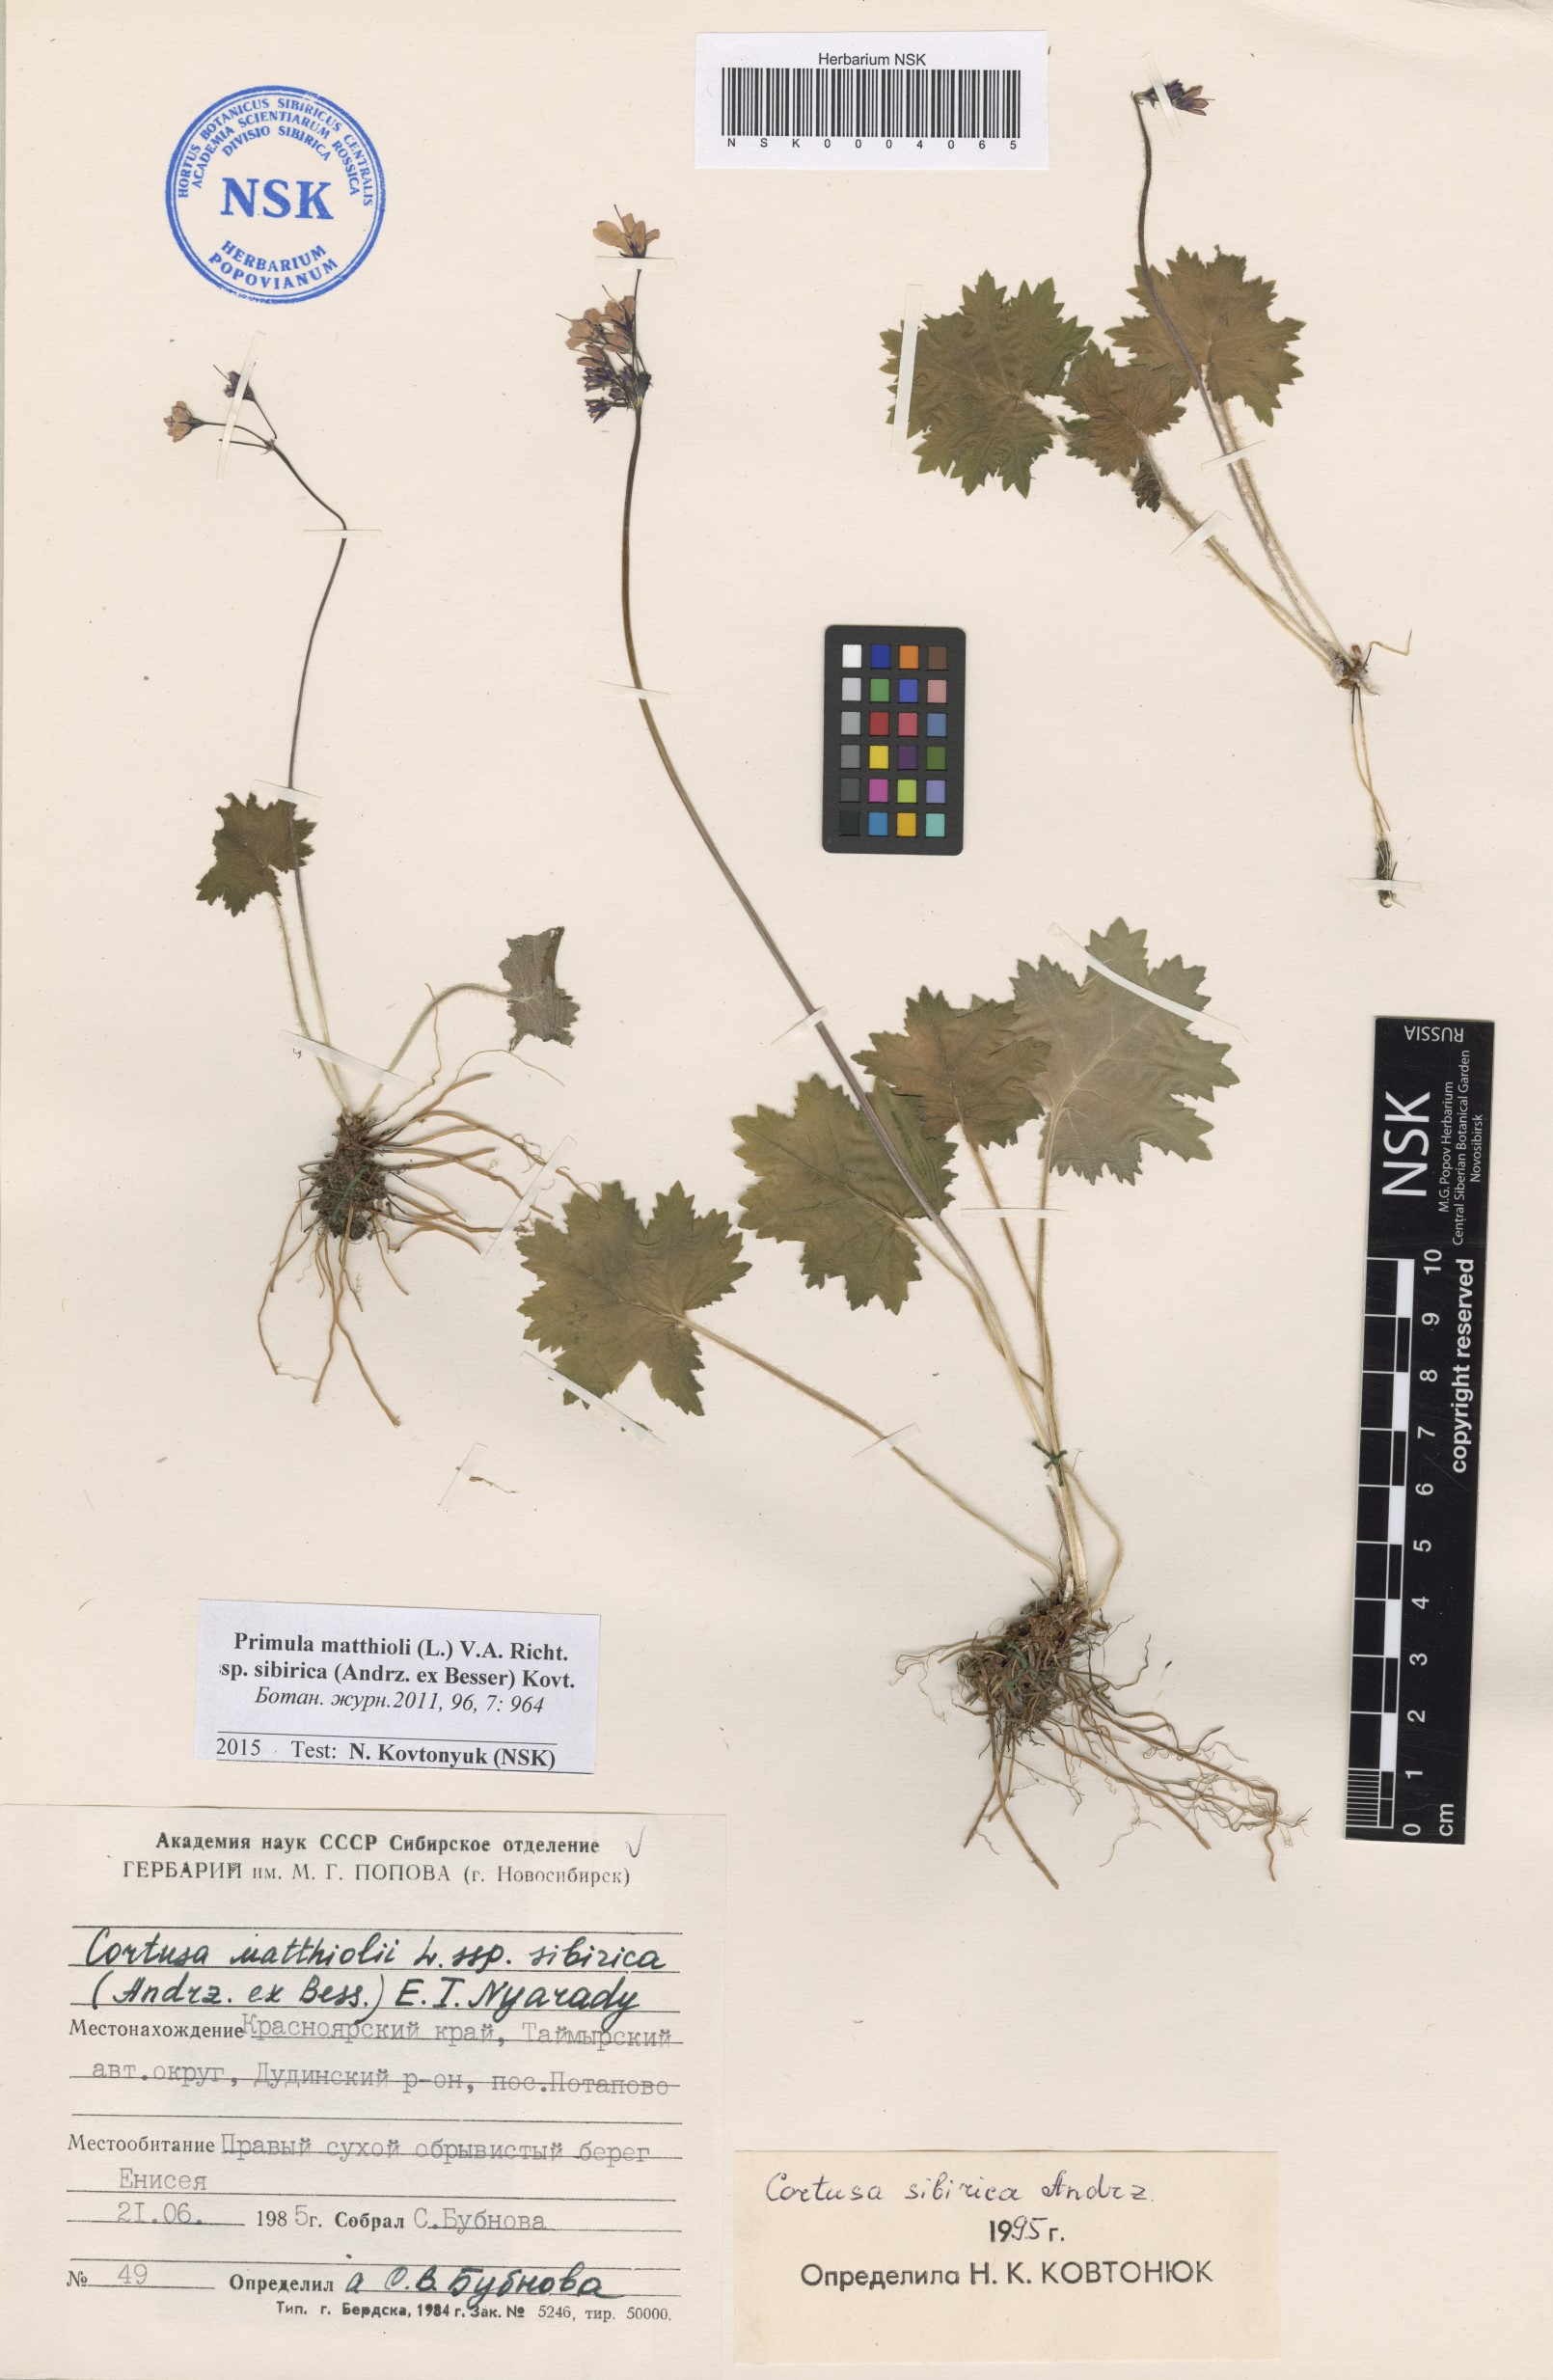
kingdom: Plantae
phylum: Tracheophyta
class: Magnoliopsida
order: Ericales
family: Primulaceae
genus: Primula
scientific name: Primula matthioli
